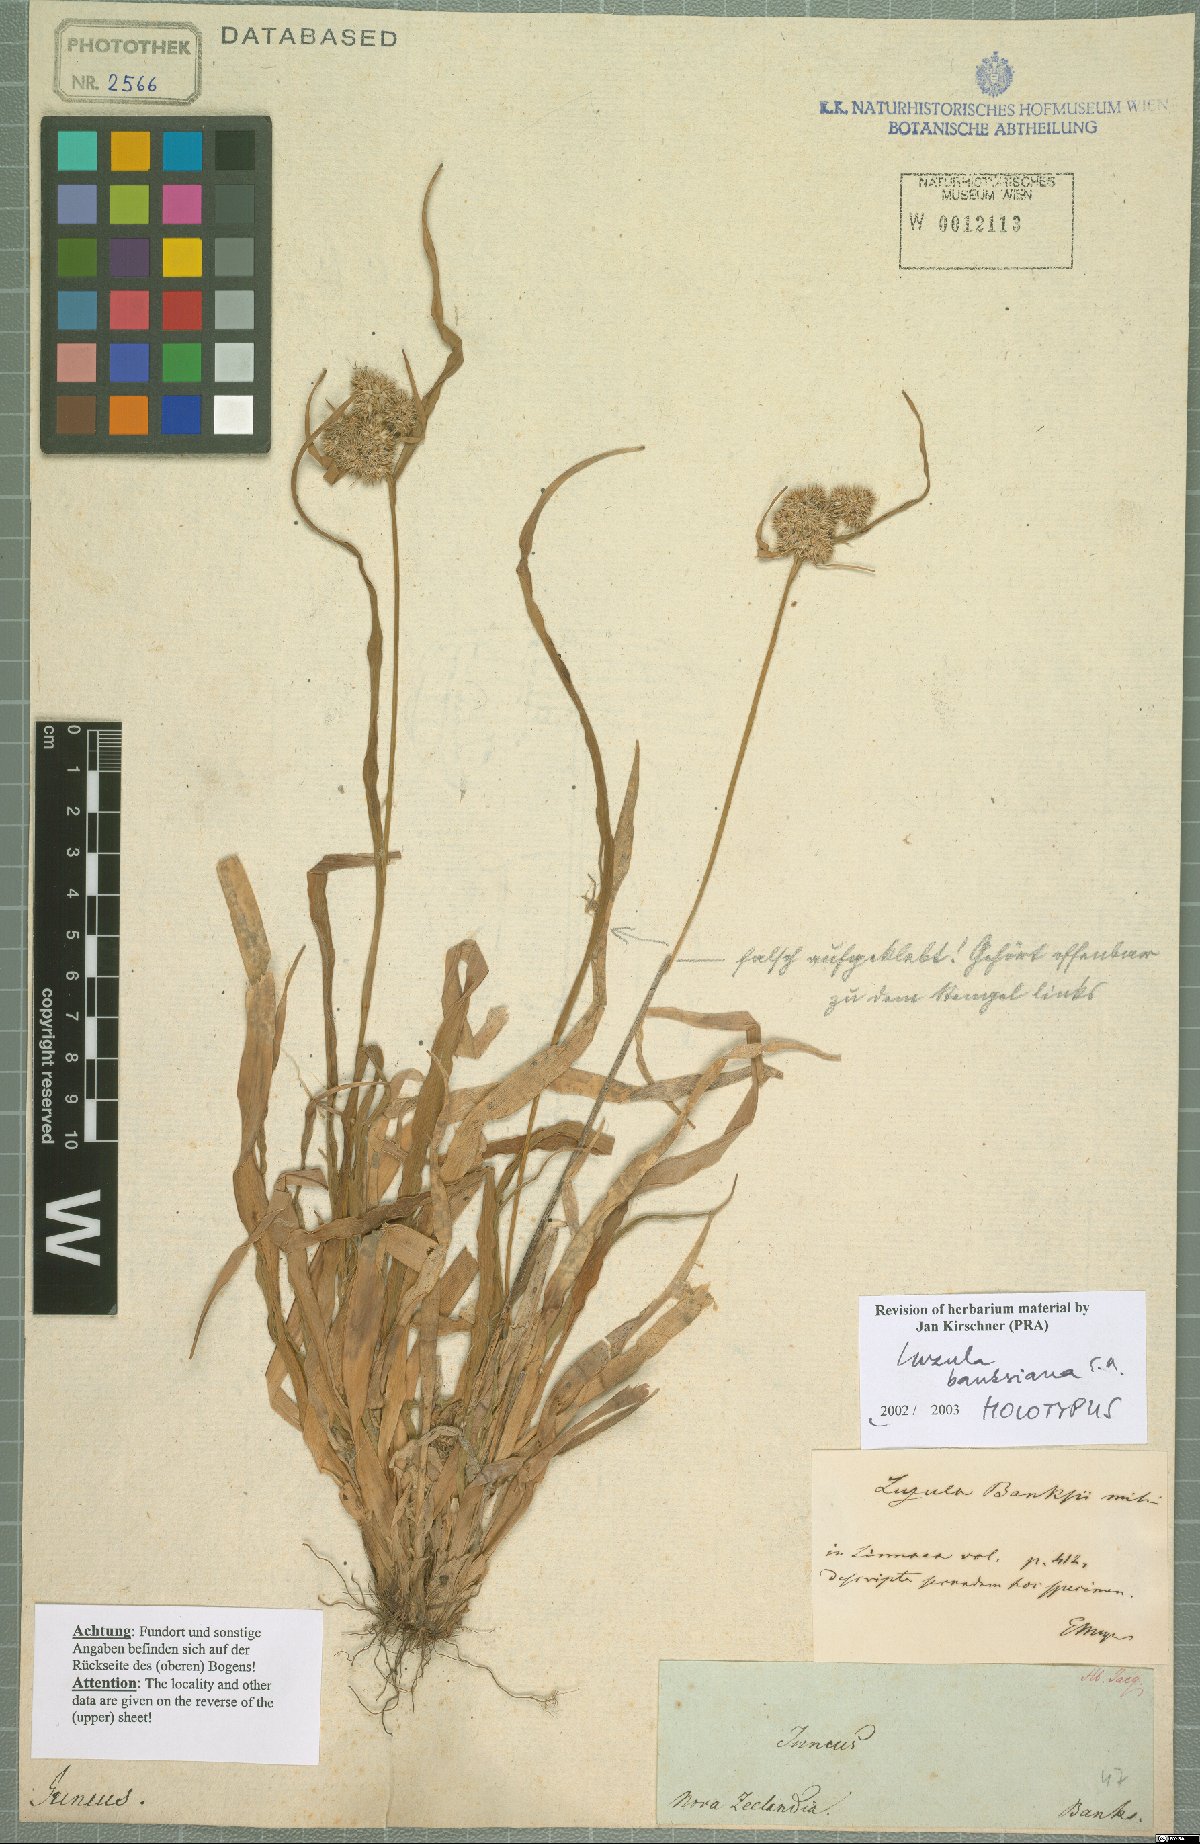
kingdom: Plantae
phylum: Tracheophyta
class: Liliopsida
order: Poales
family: Juncaceae
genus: Luzula
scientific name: Luzula banksiana
